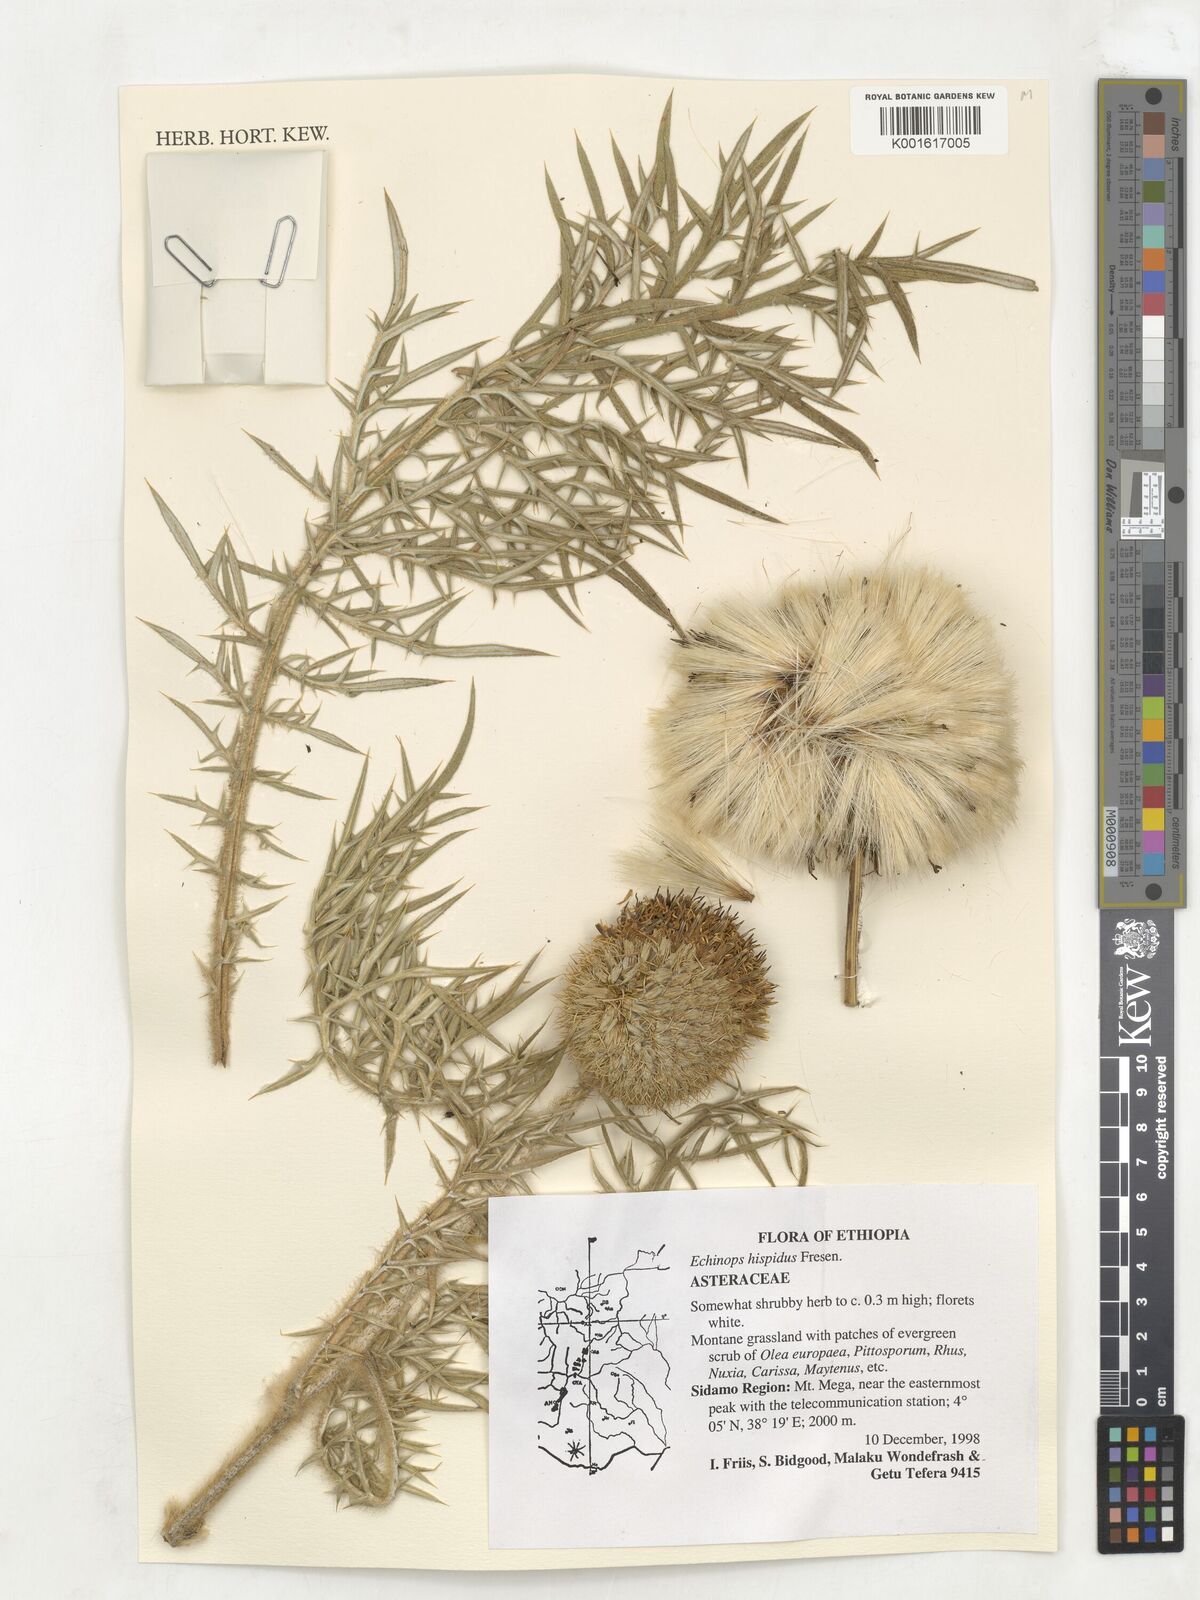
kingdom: Plantae
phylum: Tracheophyta
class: Magnoliopsida
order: Asterales
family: Asteraceae
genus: Echinops
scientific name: Echinops hispidus
